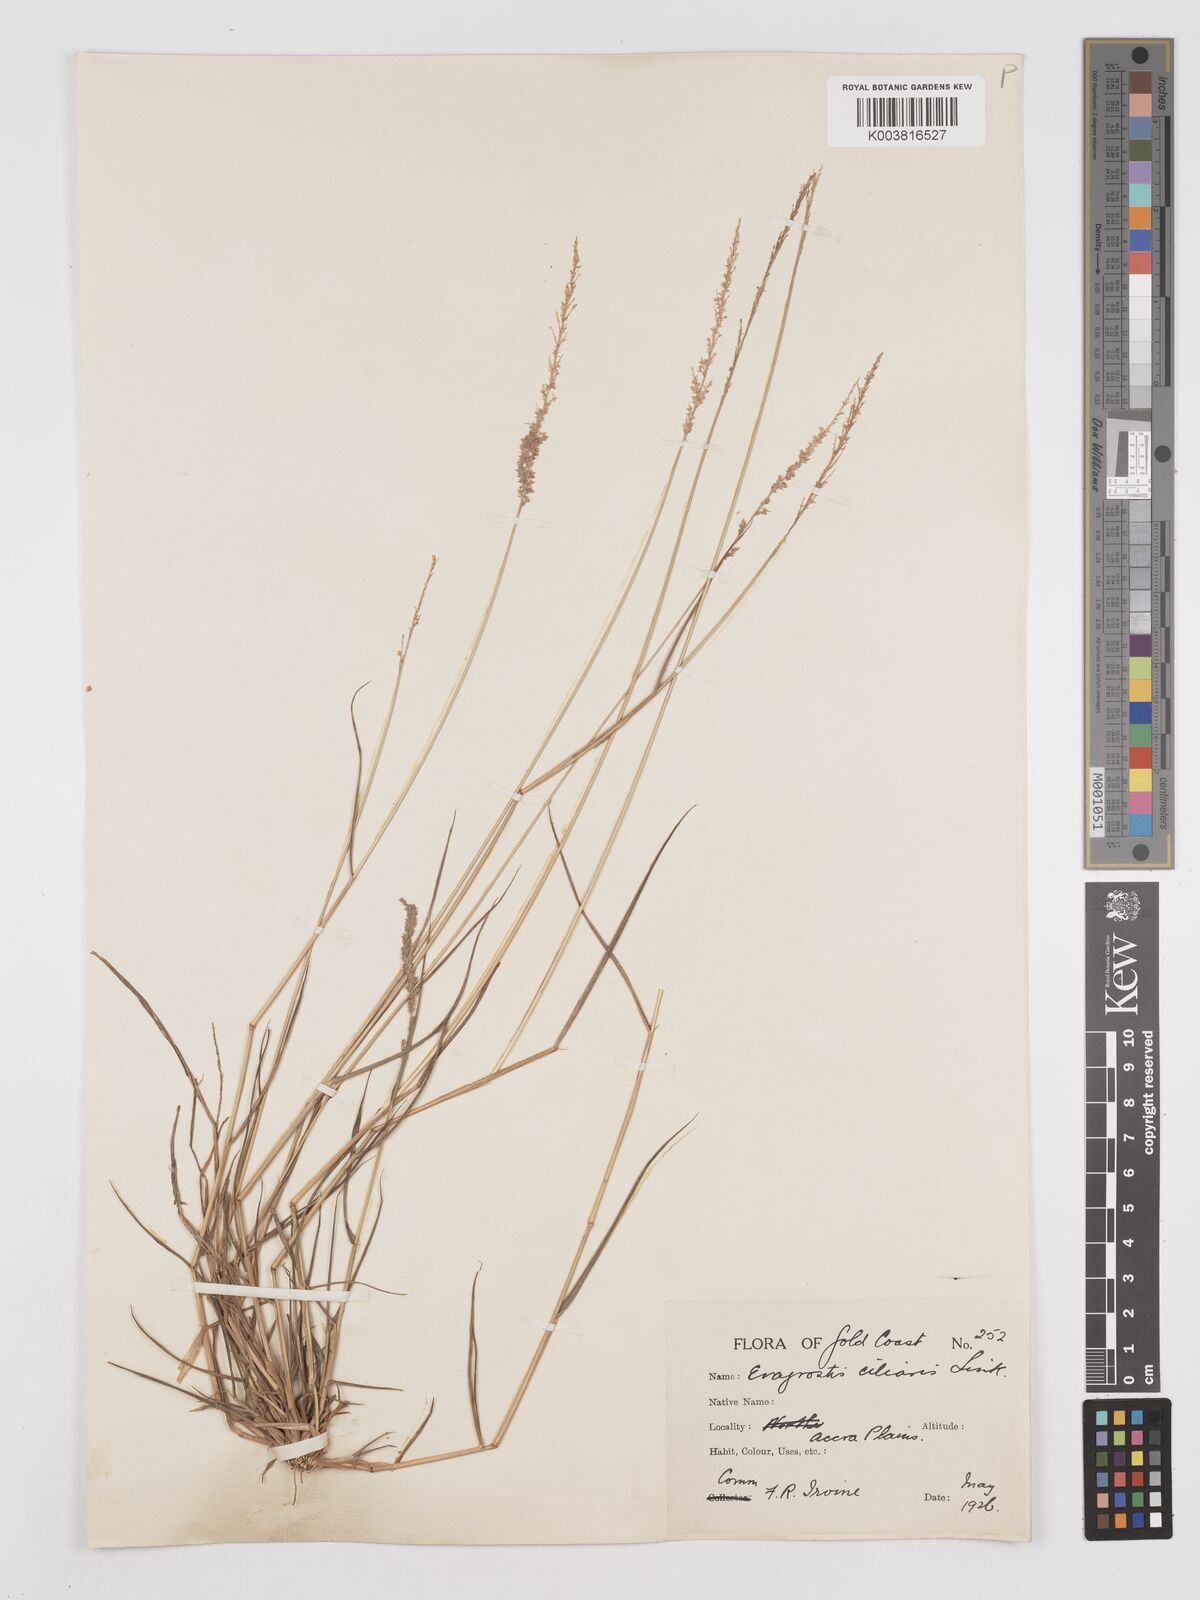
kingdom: Plantae
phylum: Tracheophyta
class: Liliopsida
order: Poales
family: Poaceae
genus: Eragrostis
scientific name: Eragrostis ciliaris
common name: Gophertail lovegrass
